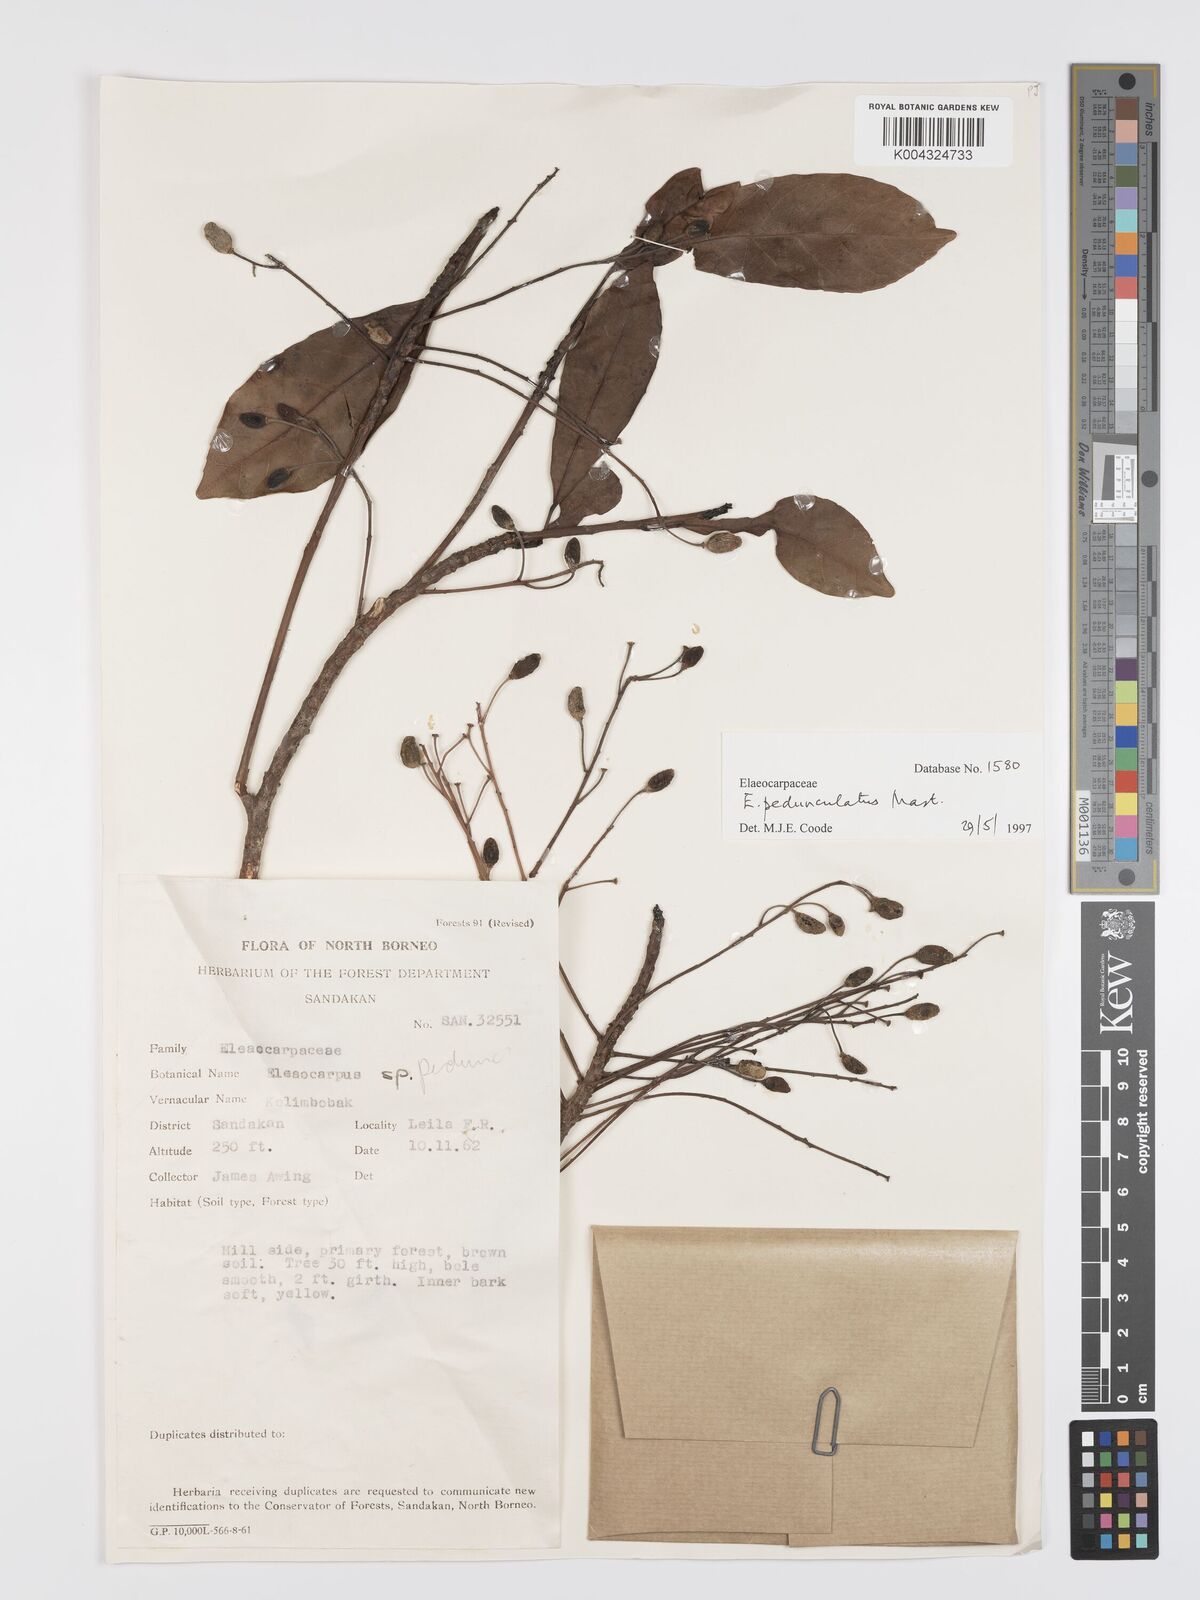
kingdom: Plantae
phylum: Tracheophyta
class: Magnoliopsida
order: Oxalidales
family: Elaeocarpaceae
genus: Elaeocarpus
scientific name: Elaeocarpus pedunculatus
